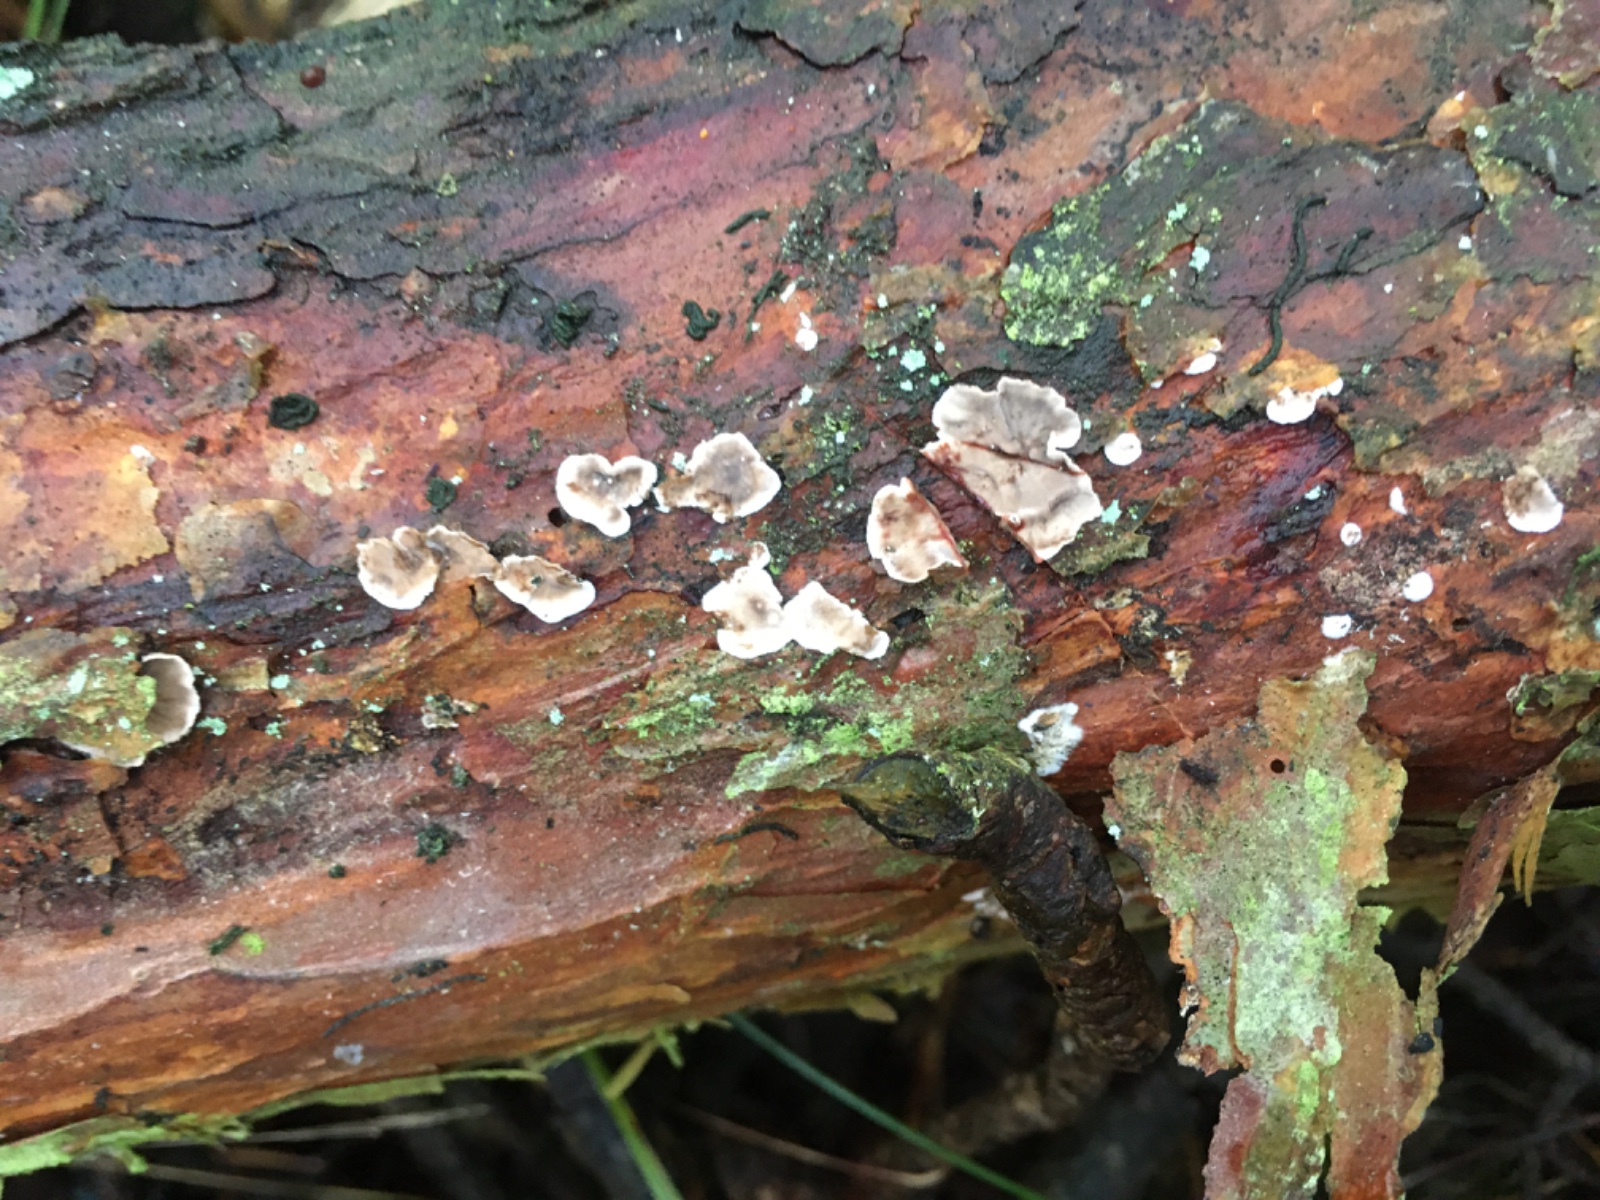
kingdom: Fungi
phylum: Basidiomycota
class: Agaricomycetes
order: Russulales
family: Stereaceae
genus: Stereum
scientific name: Stereum sanguinolentum
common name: blødende lædersvamp
